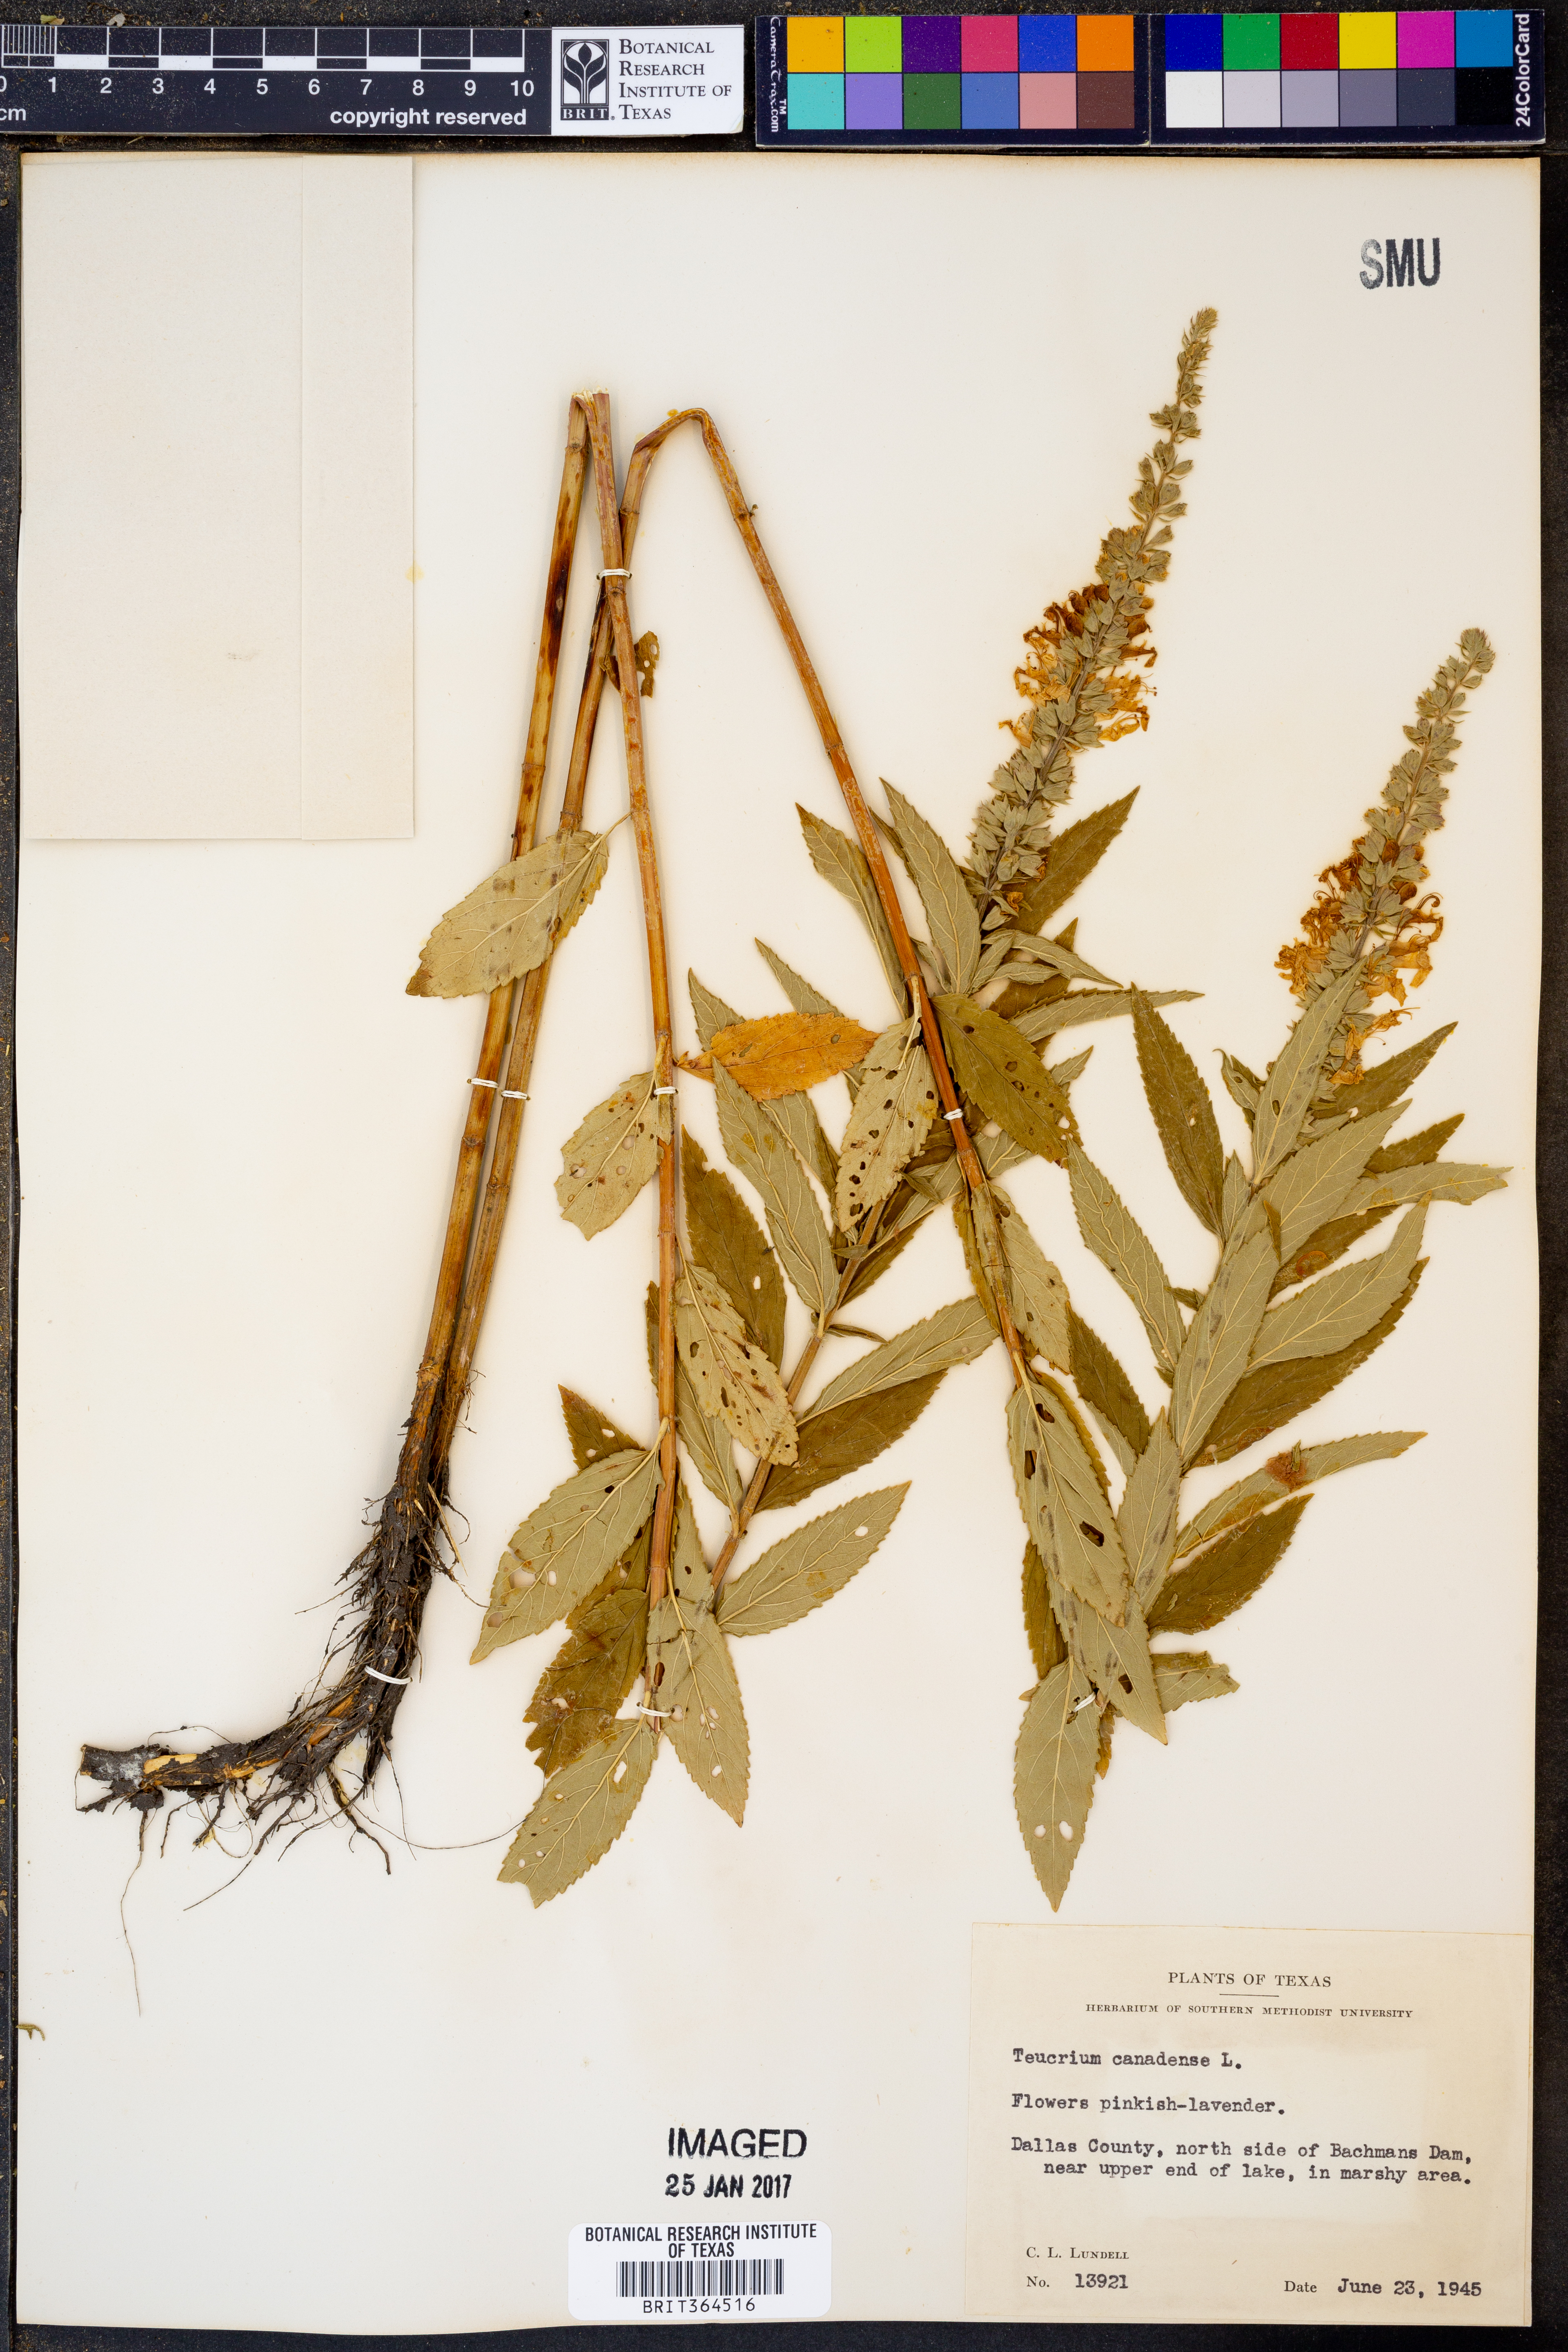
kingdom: Plantae
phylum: Tracheophyta
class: Magnoliopsida
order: Lamiales
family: Lamiaceae
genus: Teucrium
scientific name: Teucrium canadense
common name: American germander
